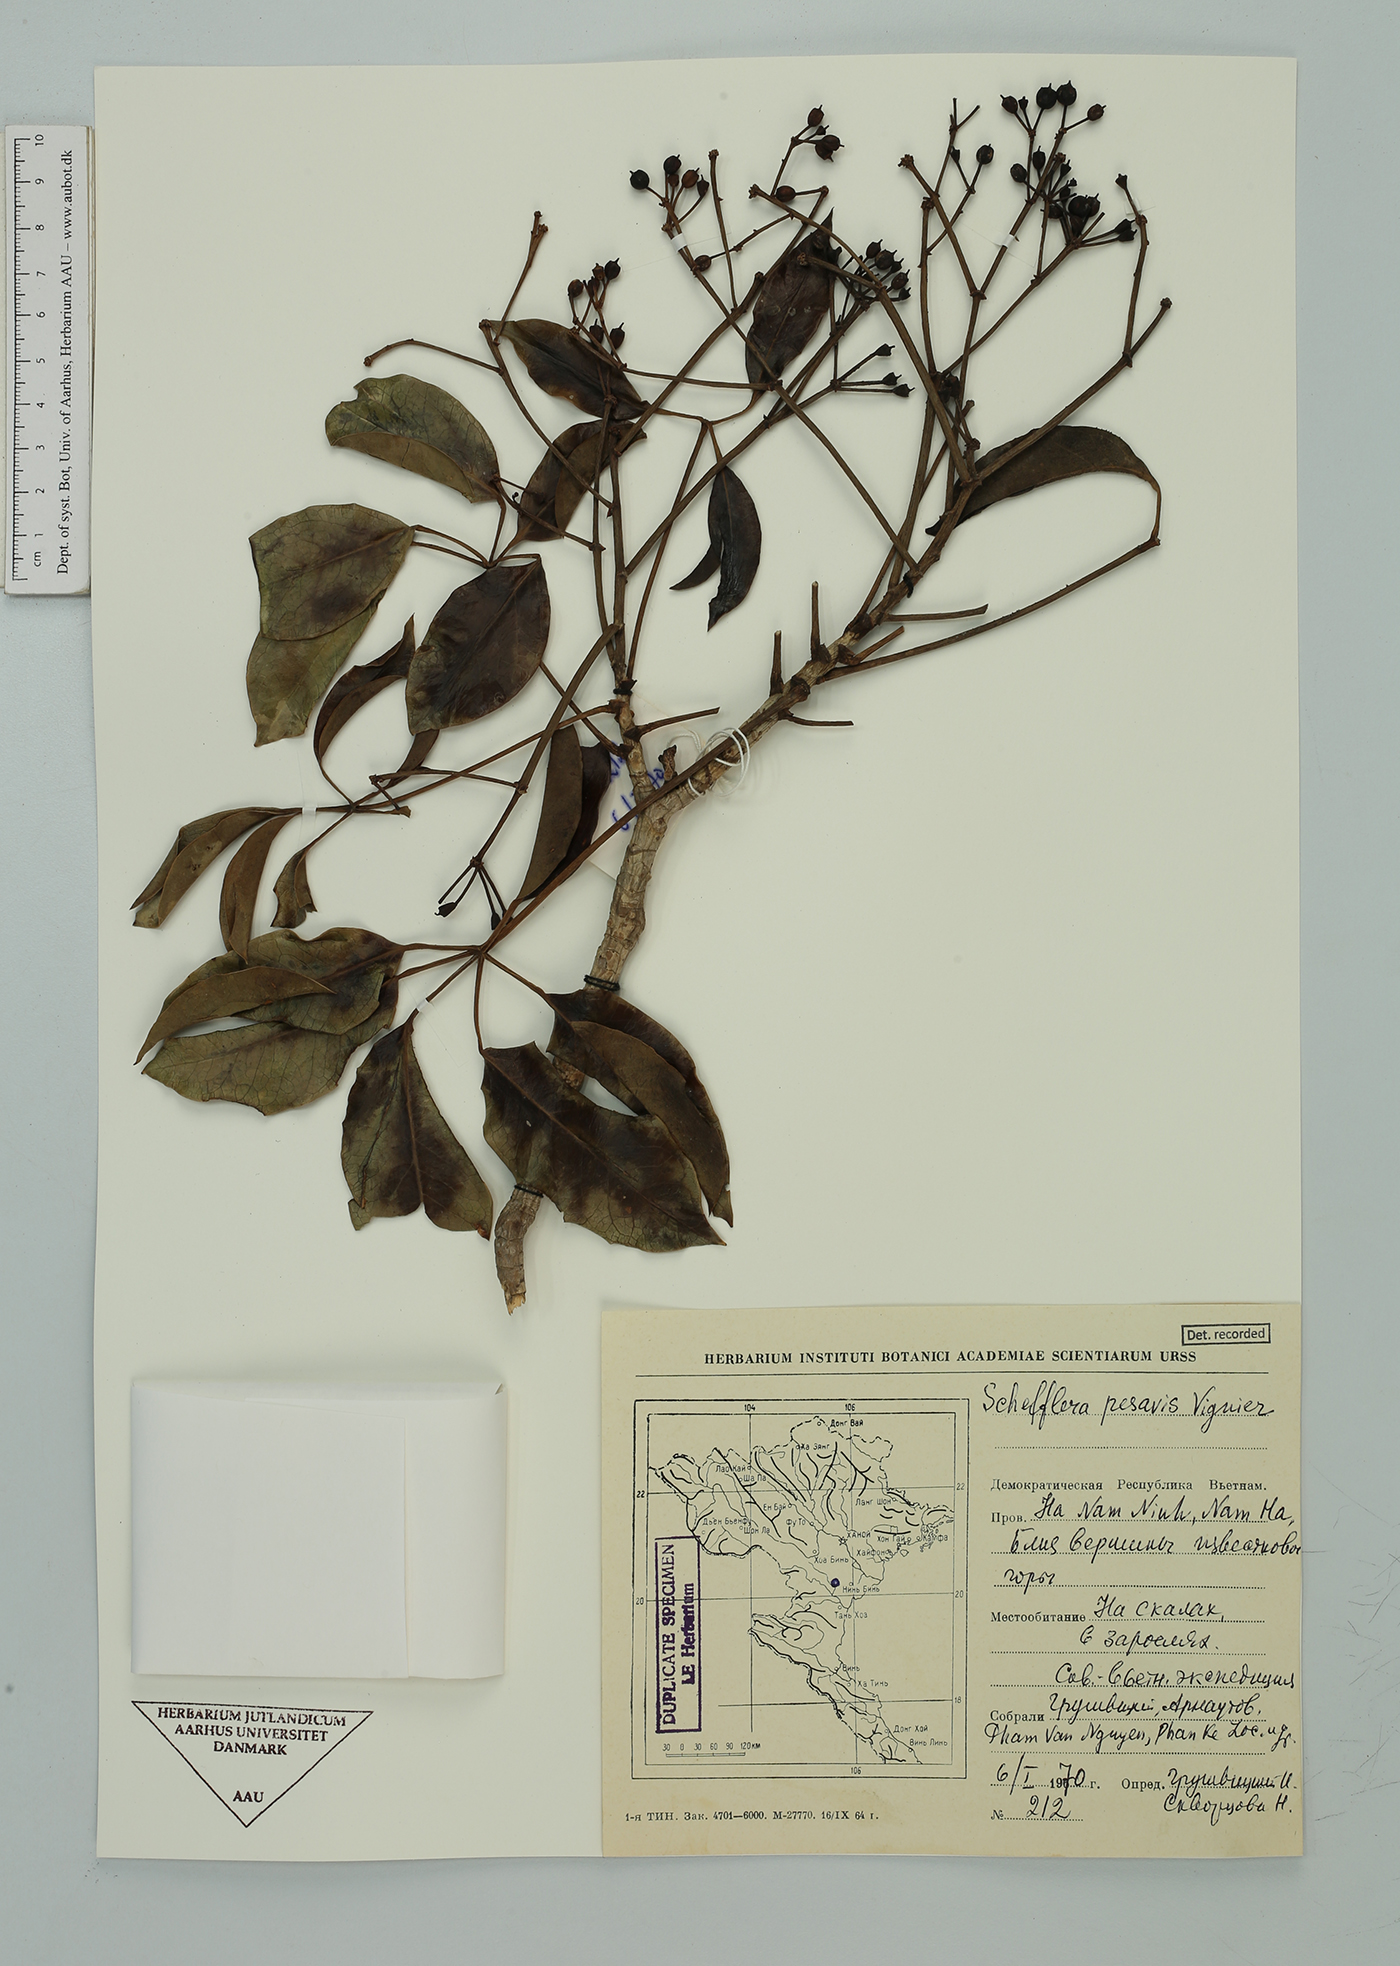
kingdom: Plantae
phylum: Tracheophyta
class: Magnoliopsida
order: Apiales
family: Araliaceae
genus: Heptapleurum
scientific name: Heptapleurum pes-avis
